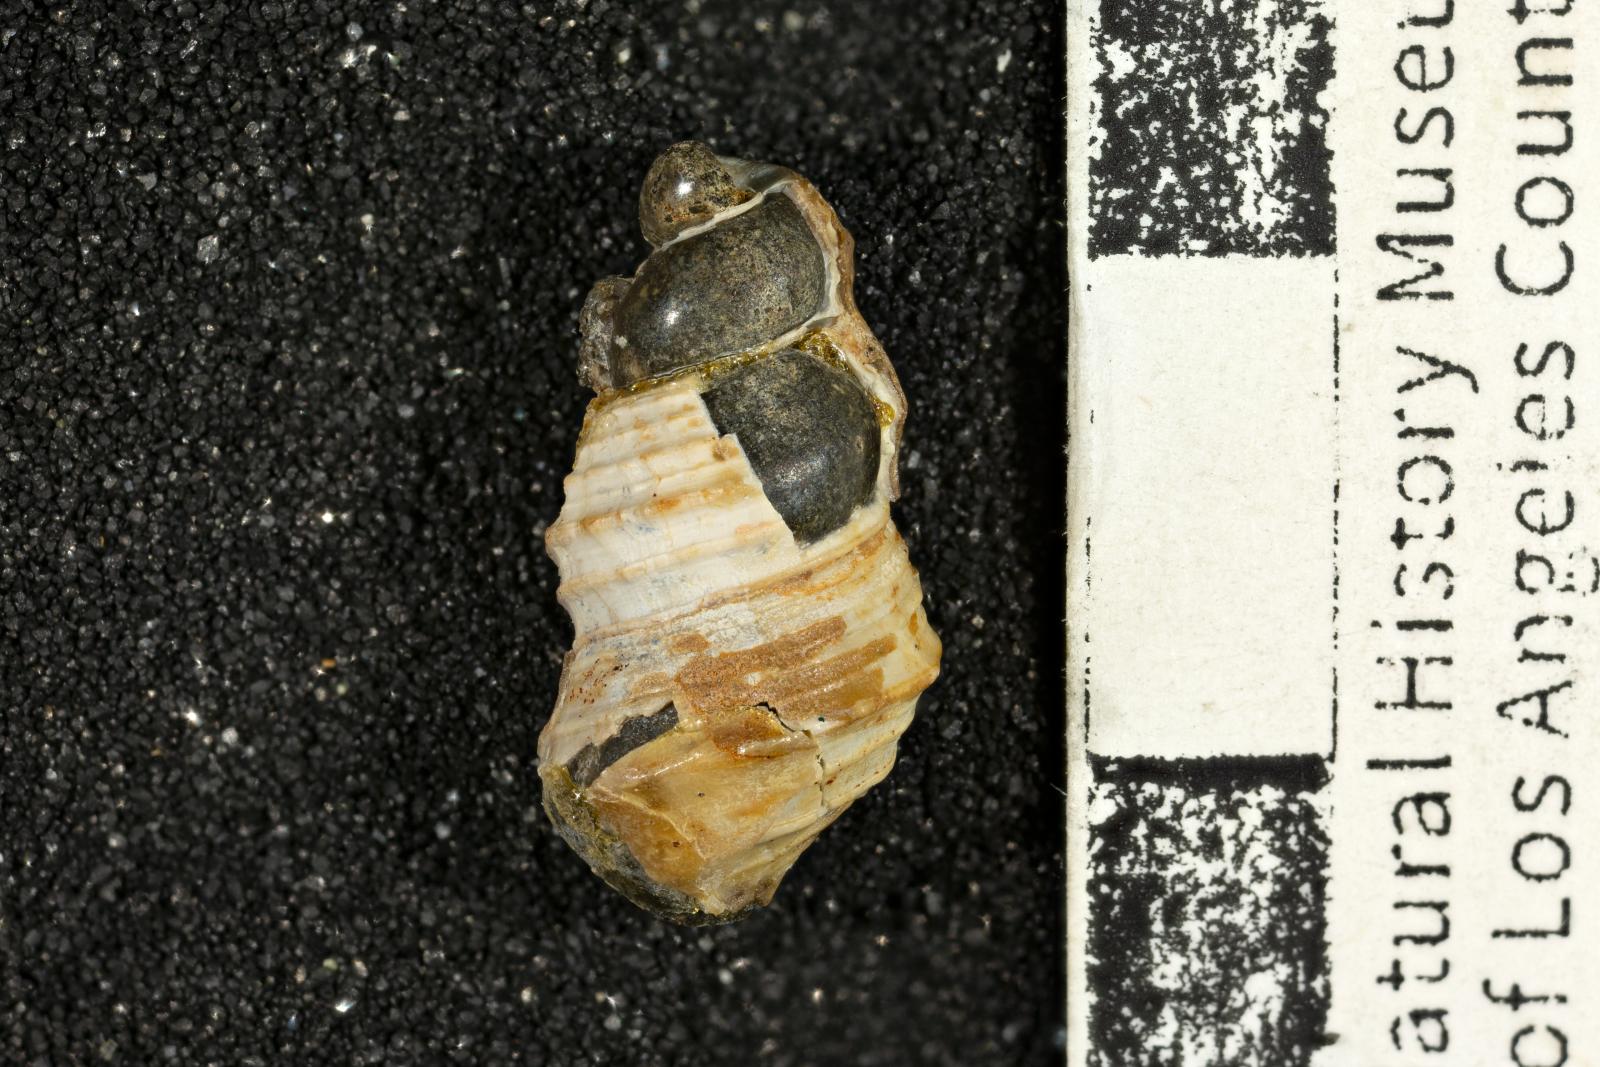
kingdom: Animalia
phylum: Mollusca
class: Gastropoda
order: Littorinimorpha
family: Aporrhaidae
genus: Tessarolax
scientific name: Tessarolax trinalis
